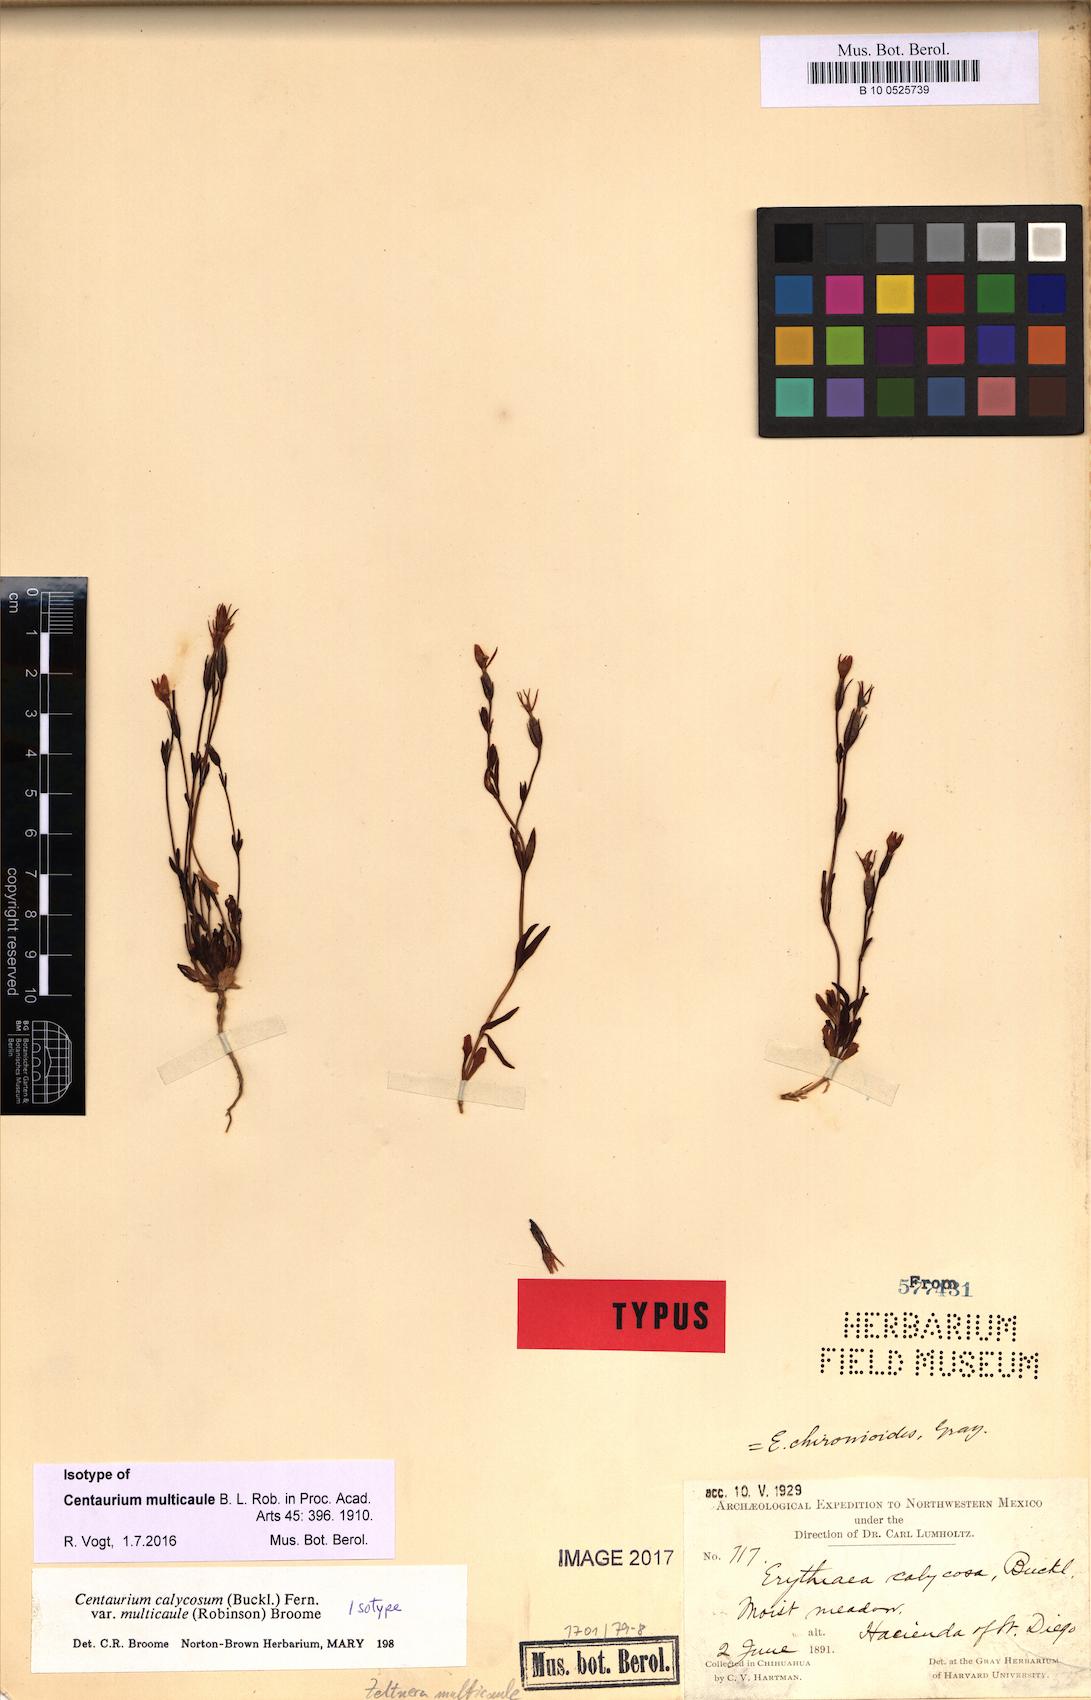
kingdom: Plantae
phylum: Tracheophyta
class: Magnoliopsida
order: Gentianales
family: Gentianaceae
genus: Zeltnera
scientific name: Zeltnera multicaulis
